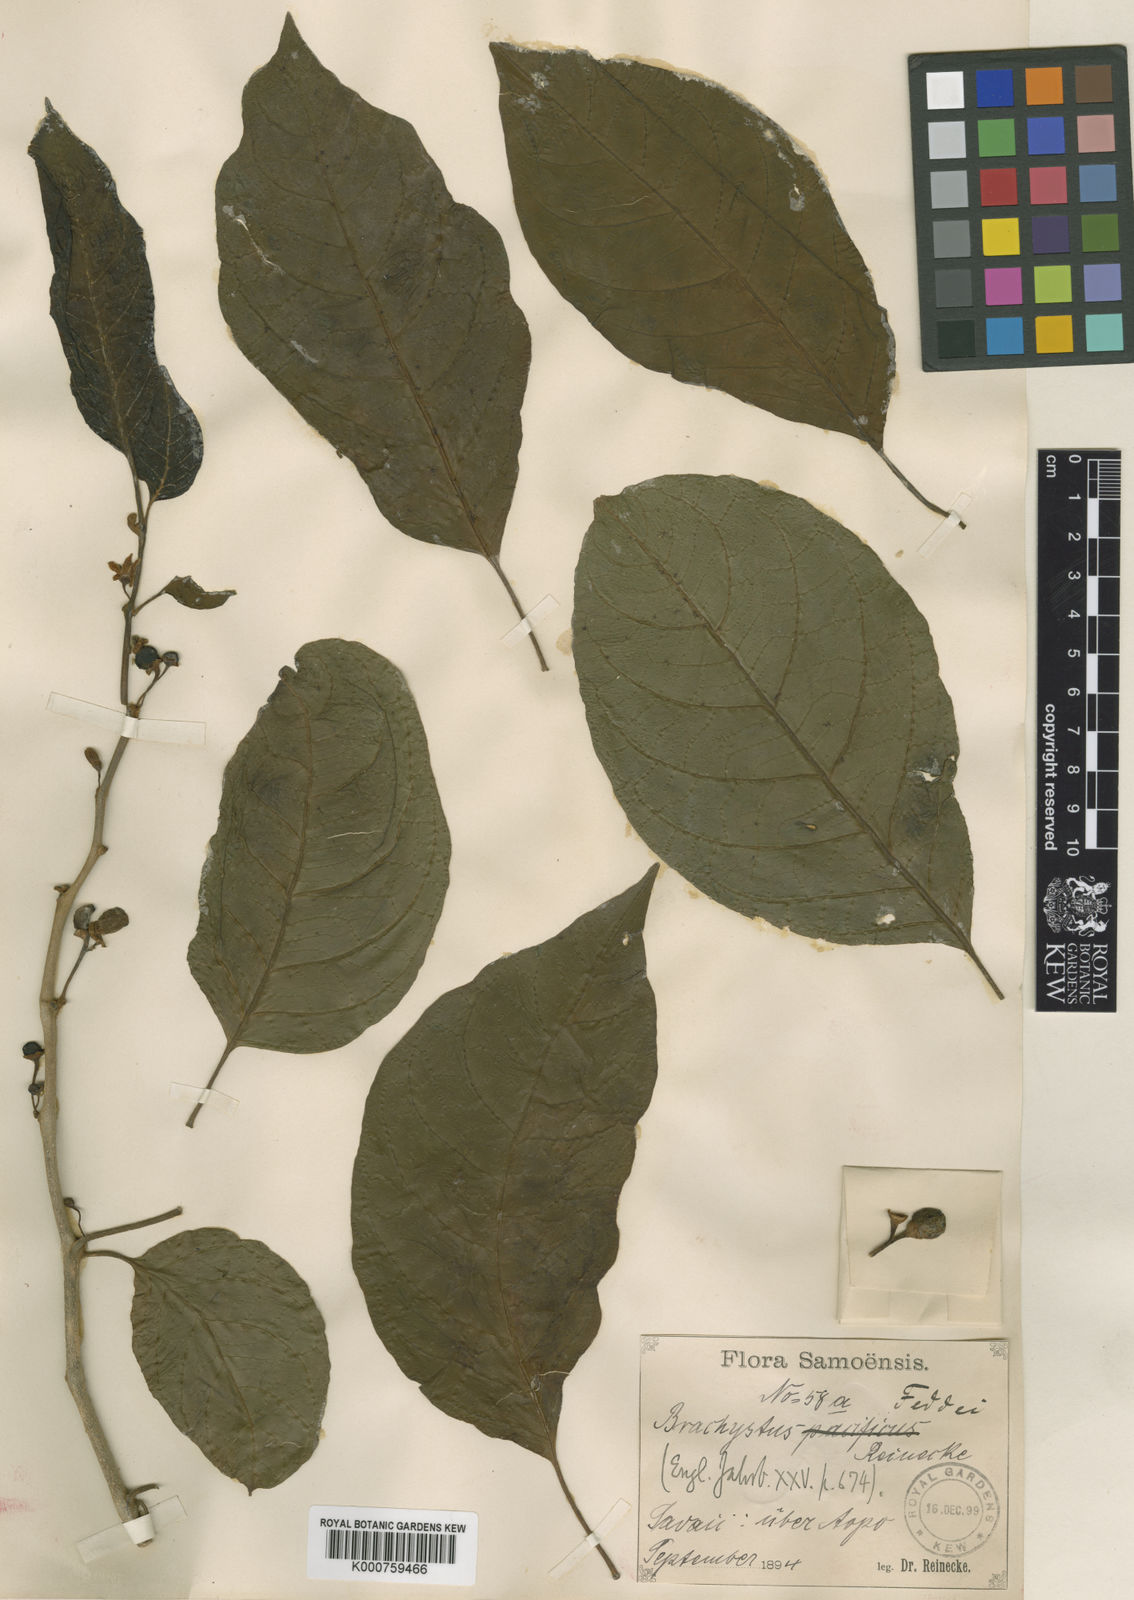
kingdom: Plantae
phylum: Tracheophyta
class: Magnoliopsida
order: Solanales
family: Solanaceae
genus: Lycianthes
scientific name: Lycianthes vitiensis
